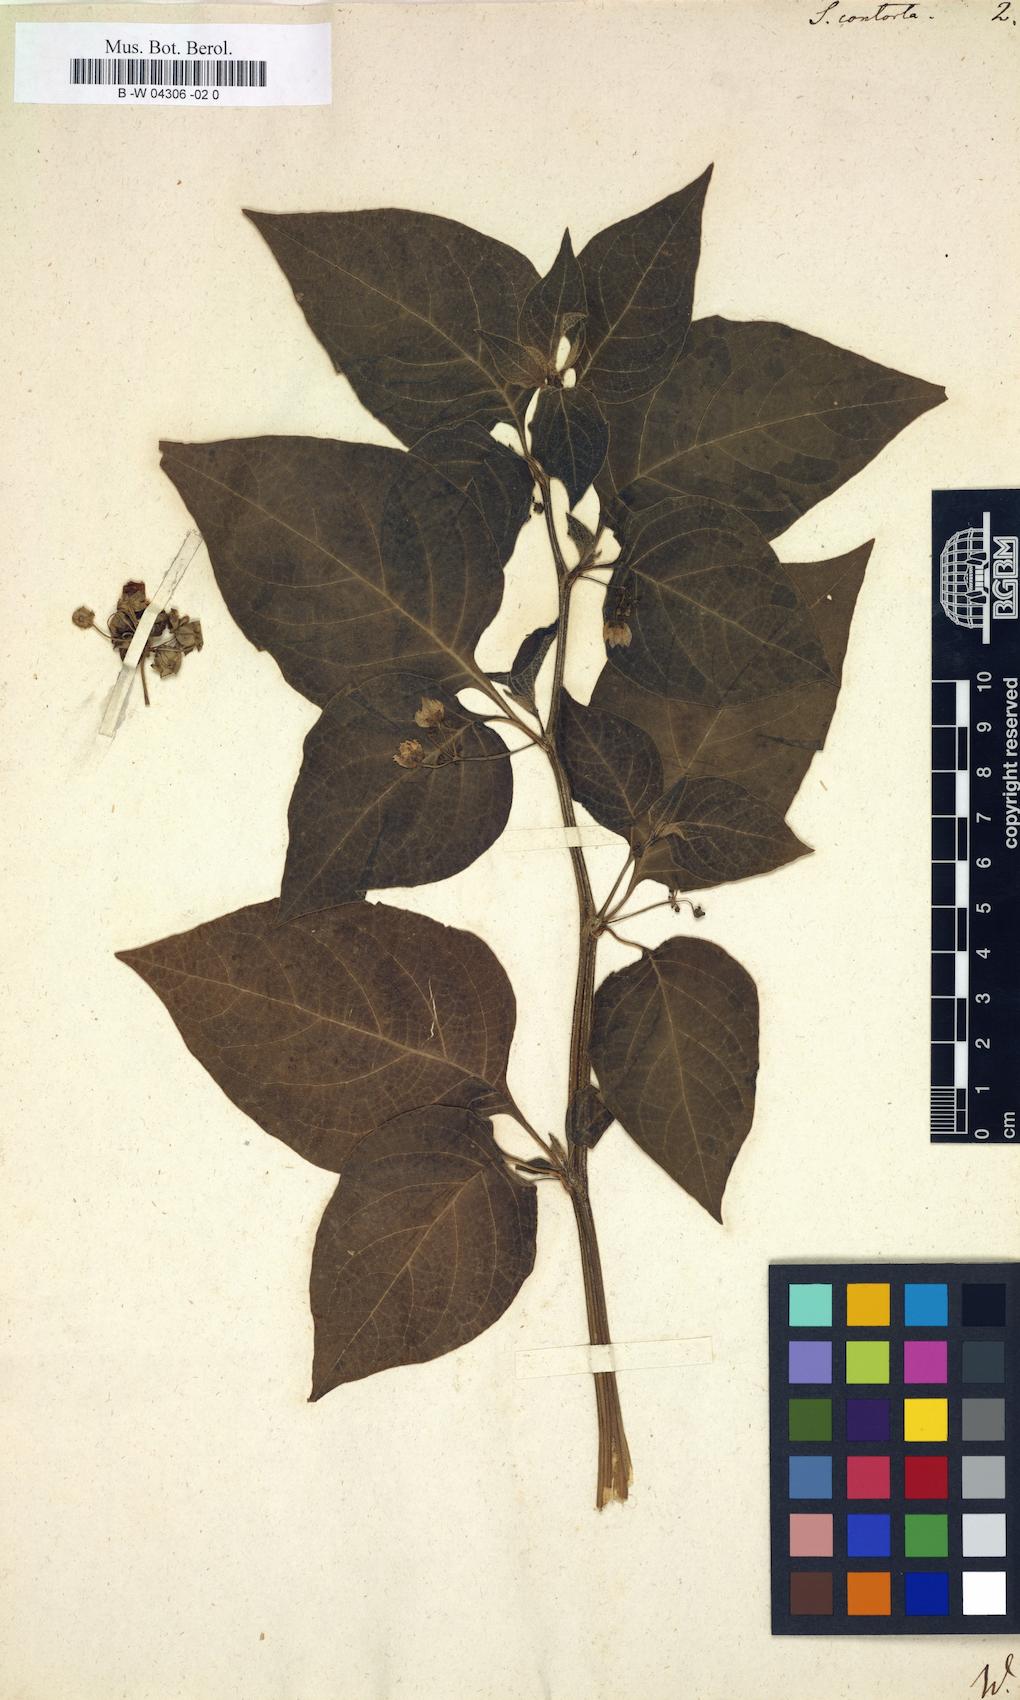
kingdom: Plantae
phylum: Tracheophyta
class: Magnoliopsida
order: Solanales
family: Solanaceae
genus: Jaltomata
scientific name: Jaltomata umbellata
